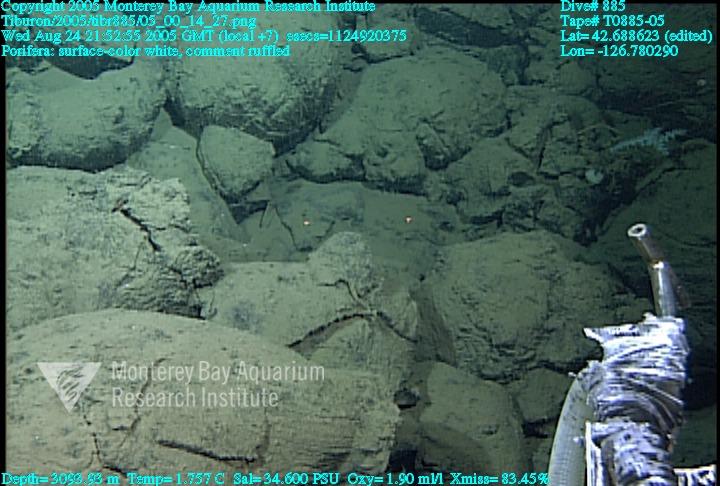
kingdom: Animalia
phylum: Porifera
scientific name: Porifera
